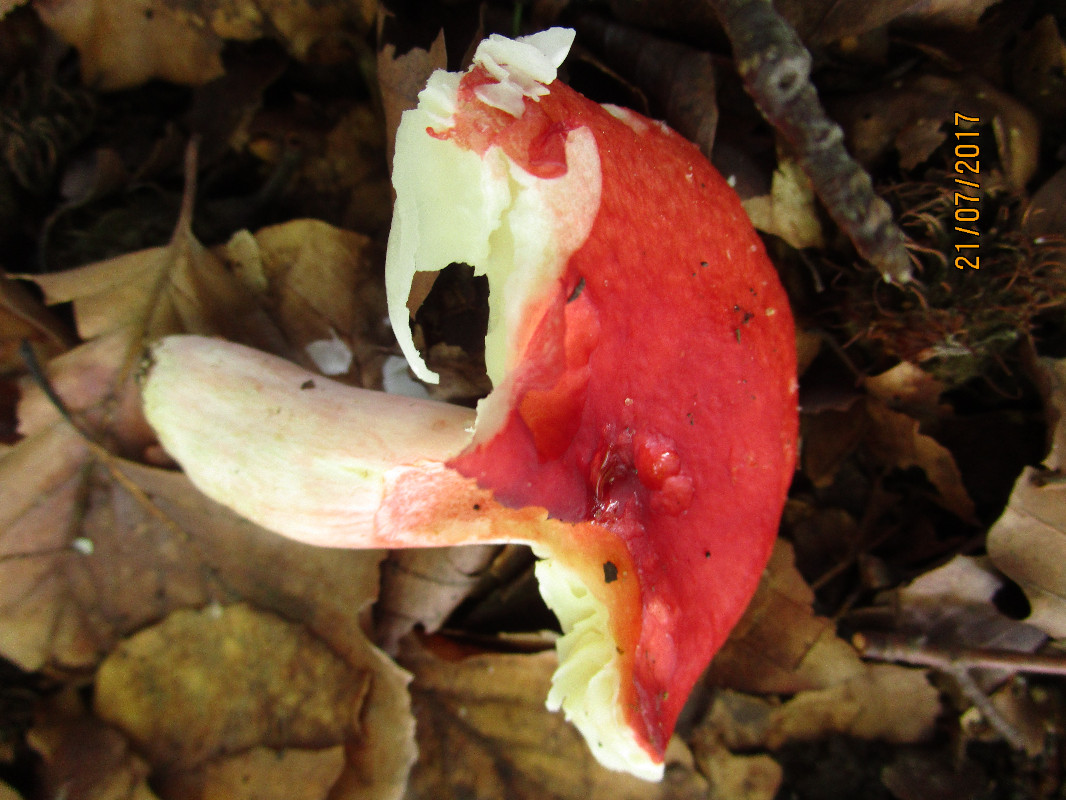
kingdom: Fungi
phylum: Basidiomycota
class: Agaricomycetes
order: Russulales
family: Russulaceae
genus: Russula
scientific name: Russula rosea
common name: fastkødet skørhat
